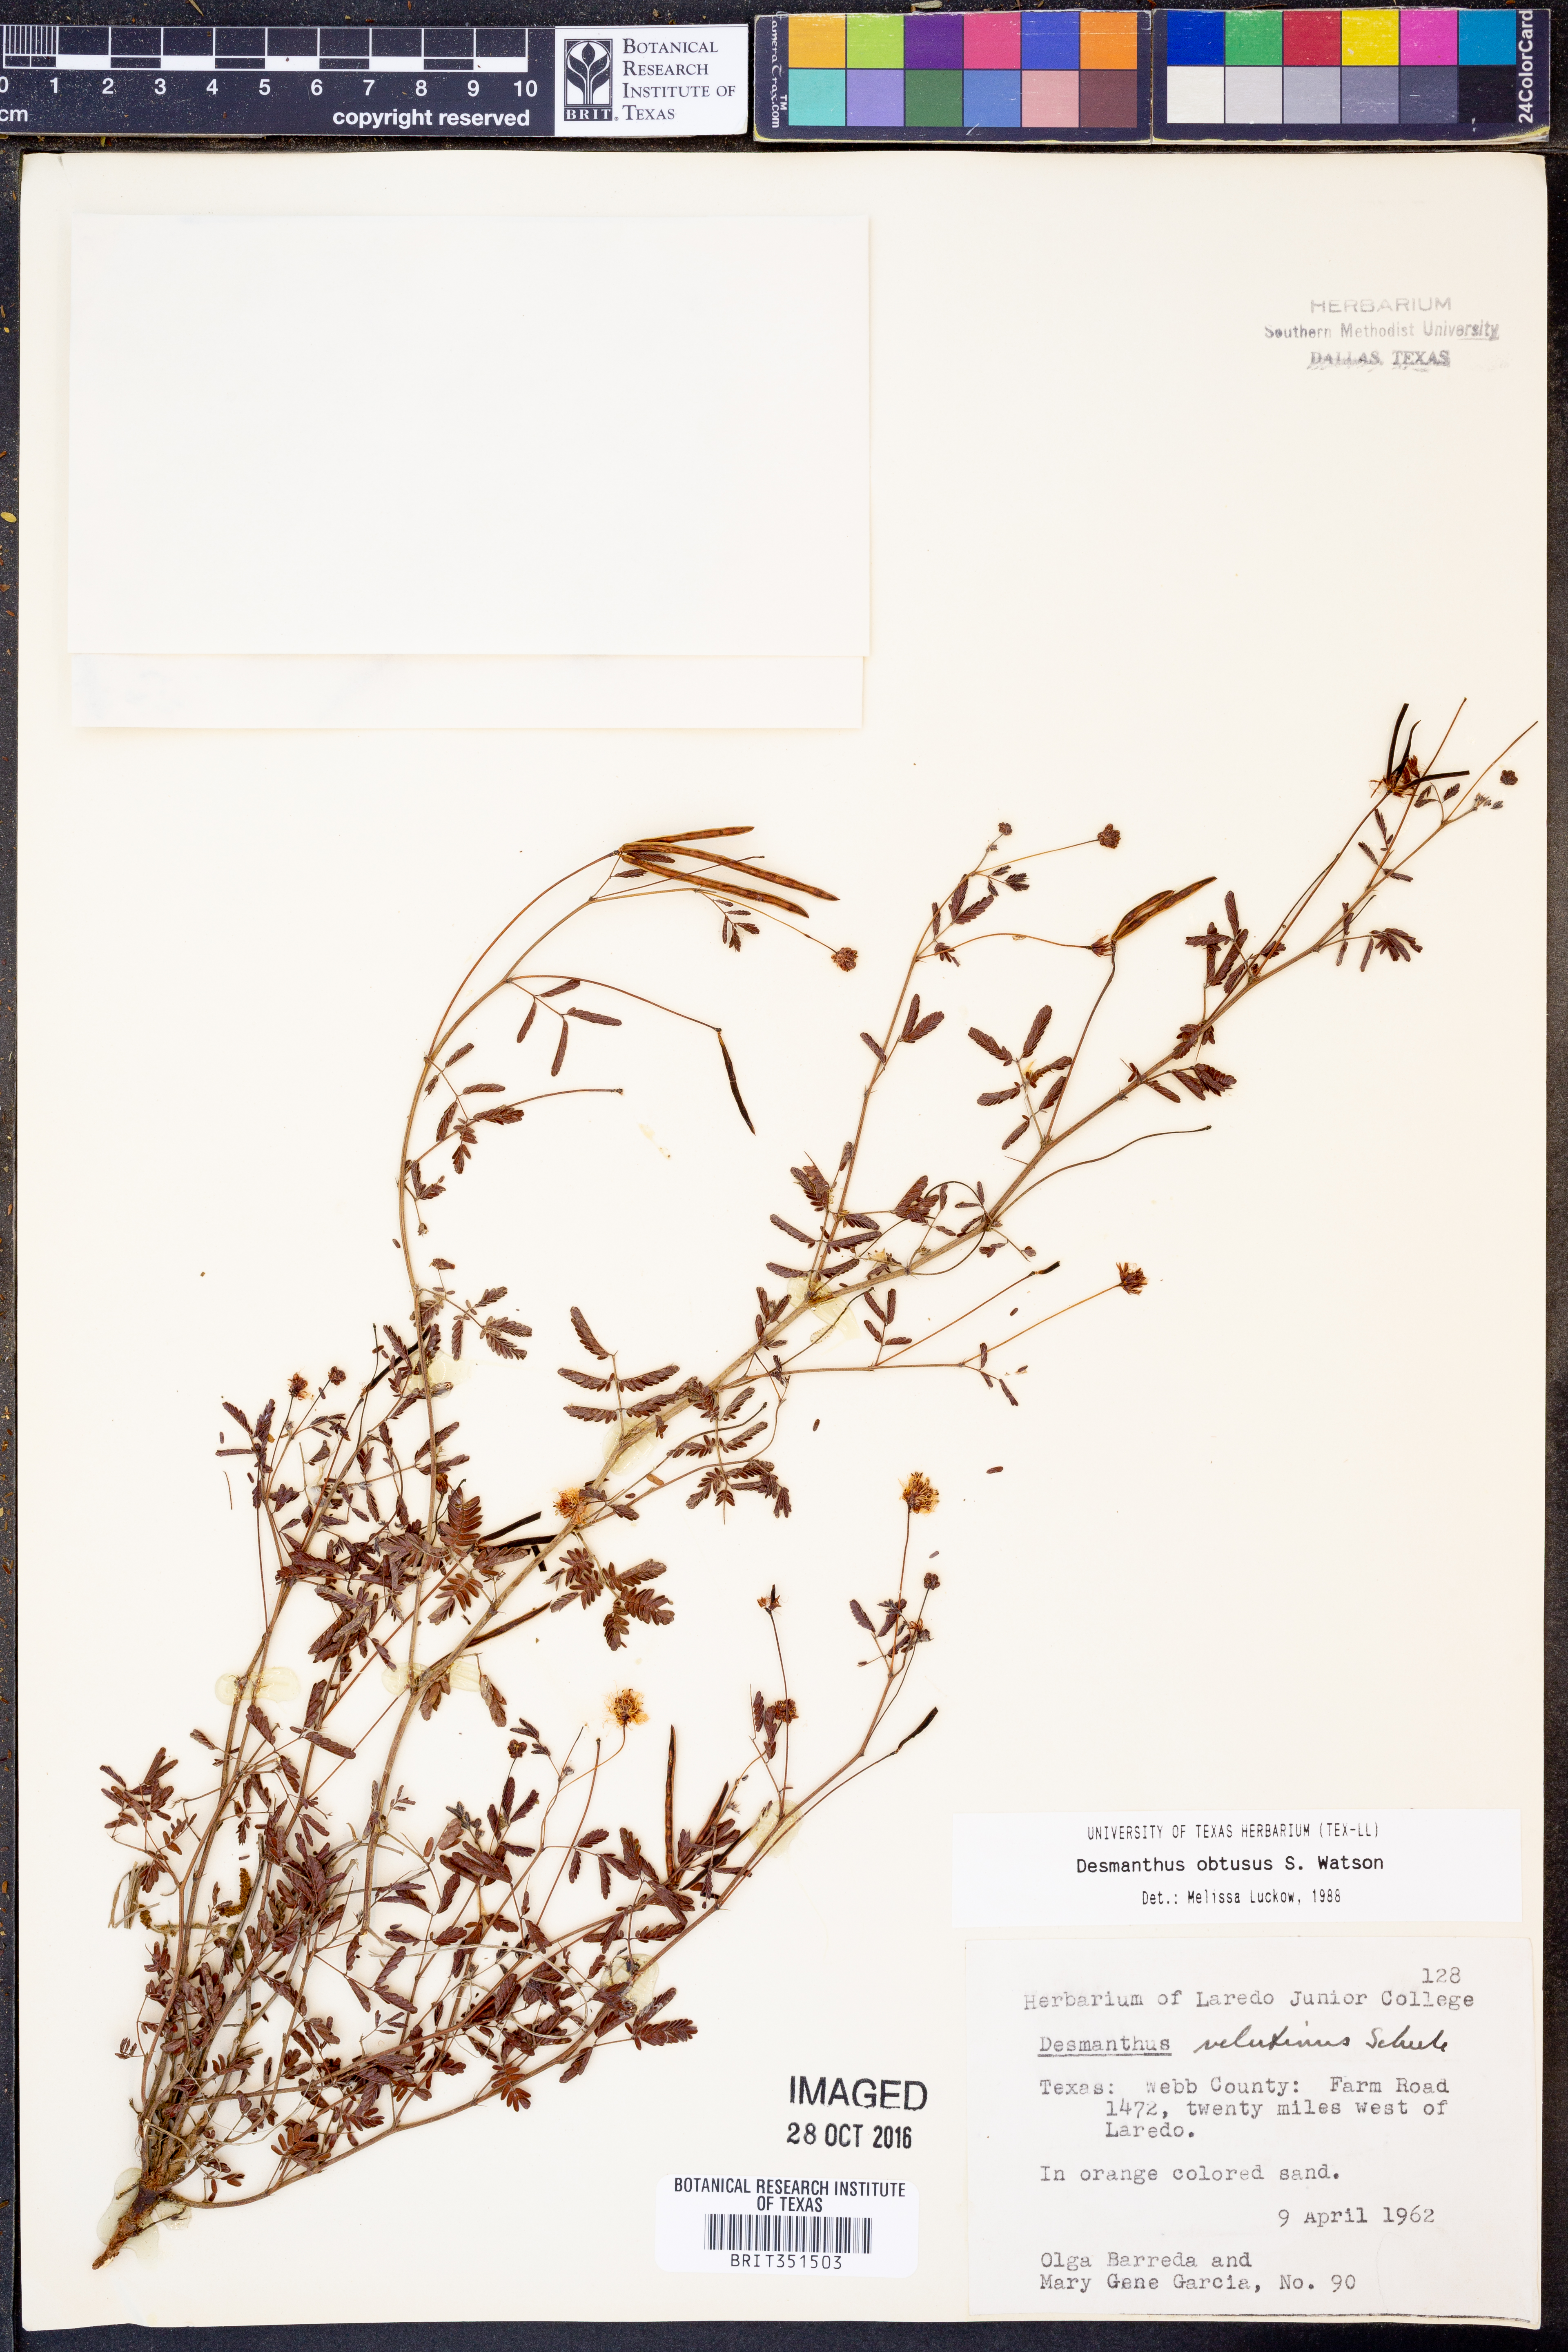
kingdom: Plantae
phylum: Tracheophyta
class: Magnoliopsida
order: Fabales
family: Fabaceae
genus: Desmanthus
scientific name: Desmanthus obtusus
